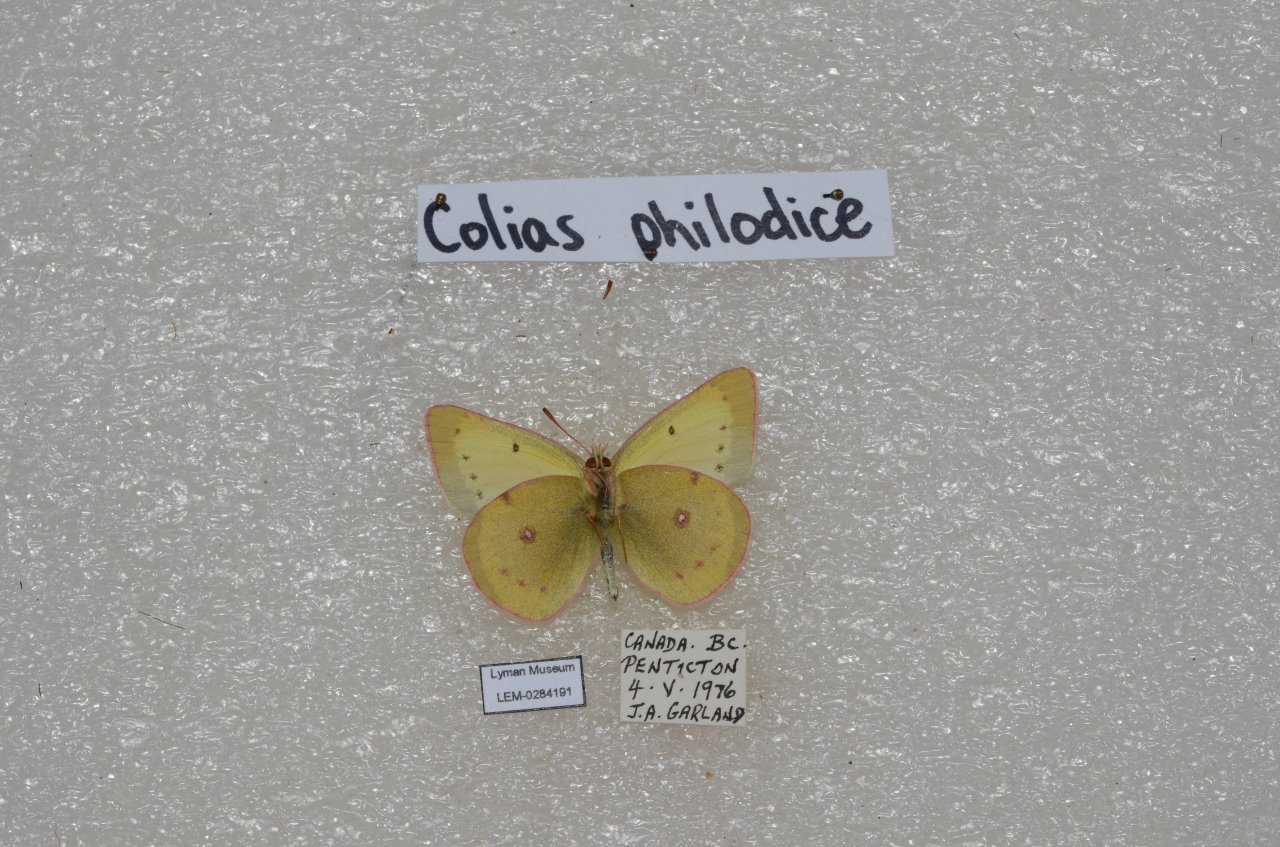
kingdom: Animalia
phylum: Arthropoda
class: Insecta
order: Lepidoptera
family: Pieridae
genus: Colias
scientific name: Colias philodice
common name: Clouded Sulphur
